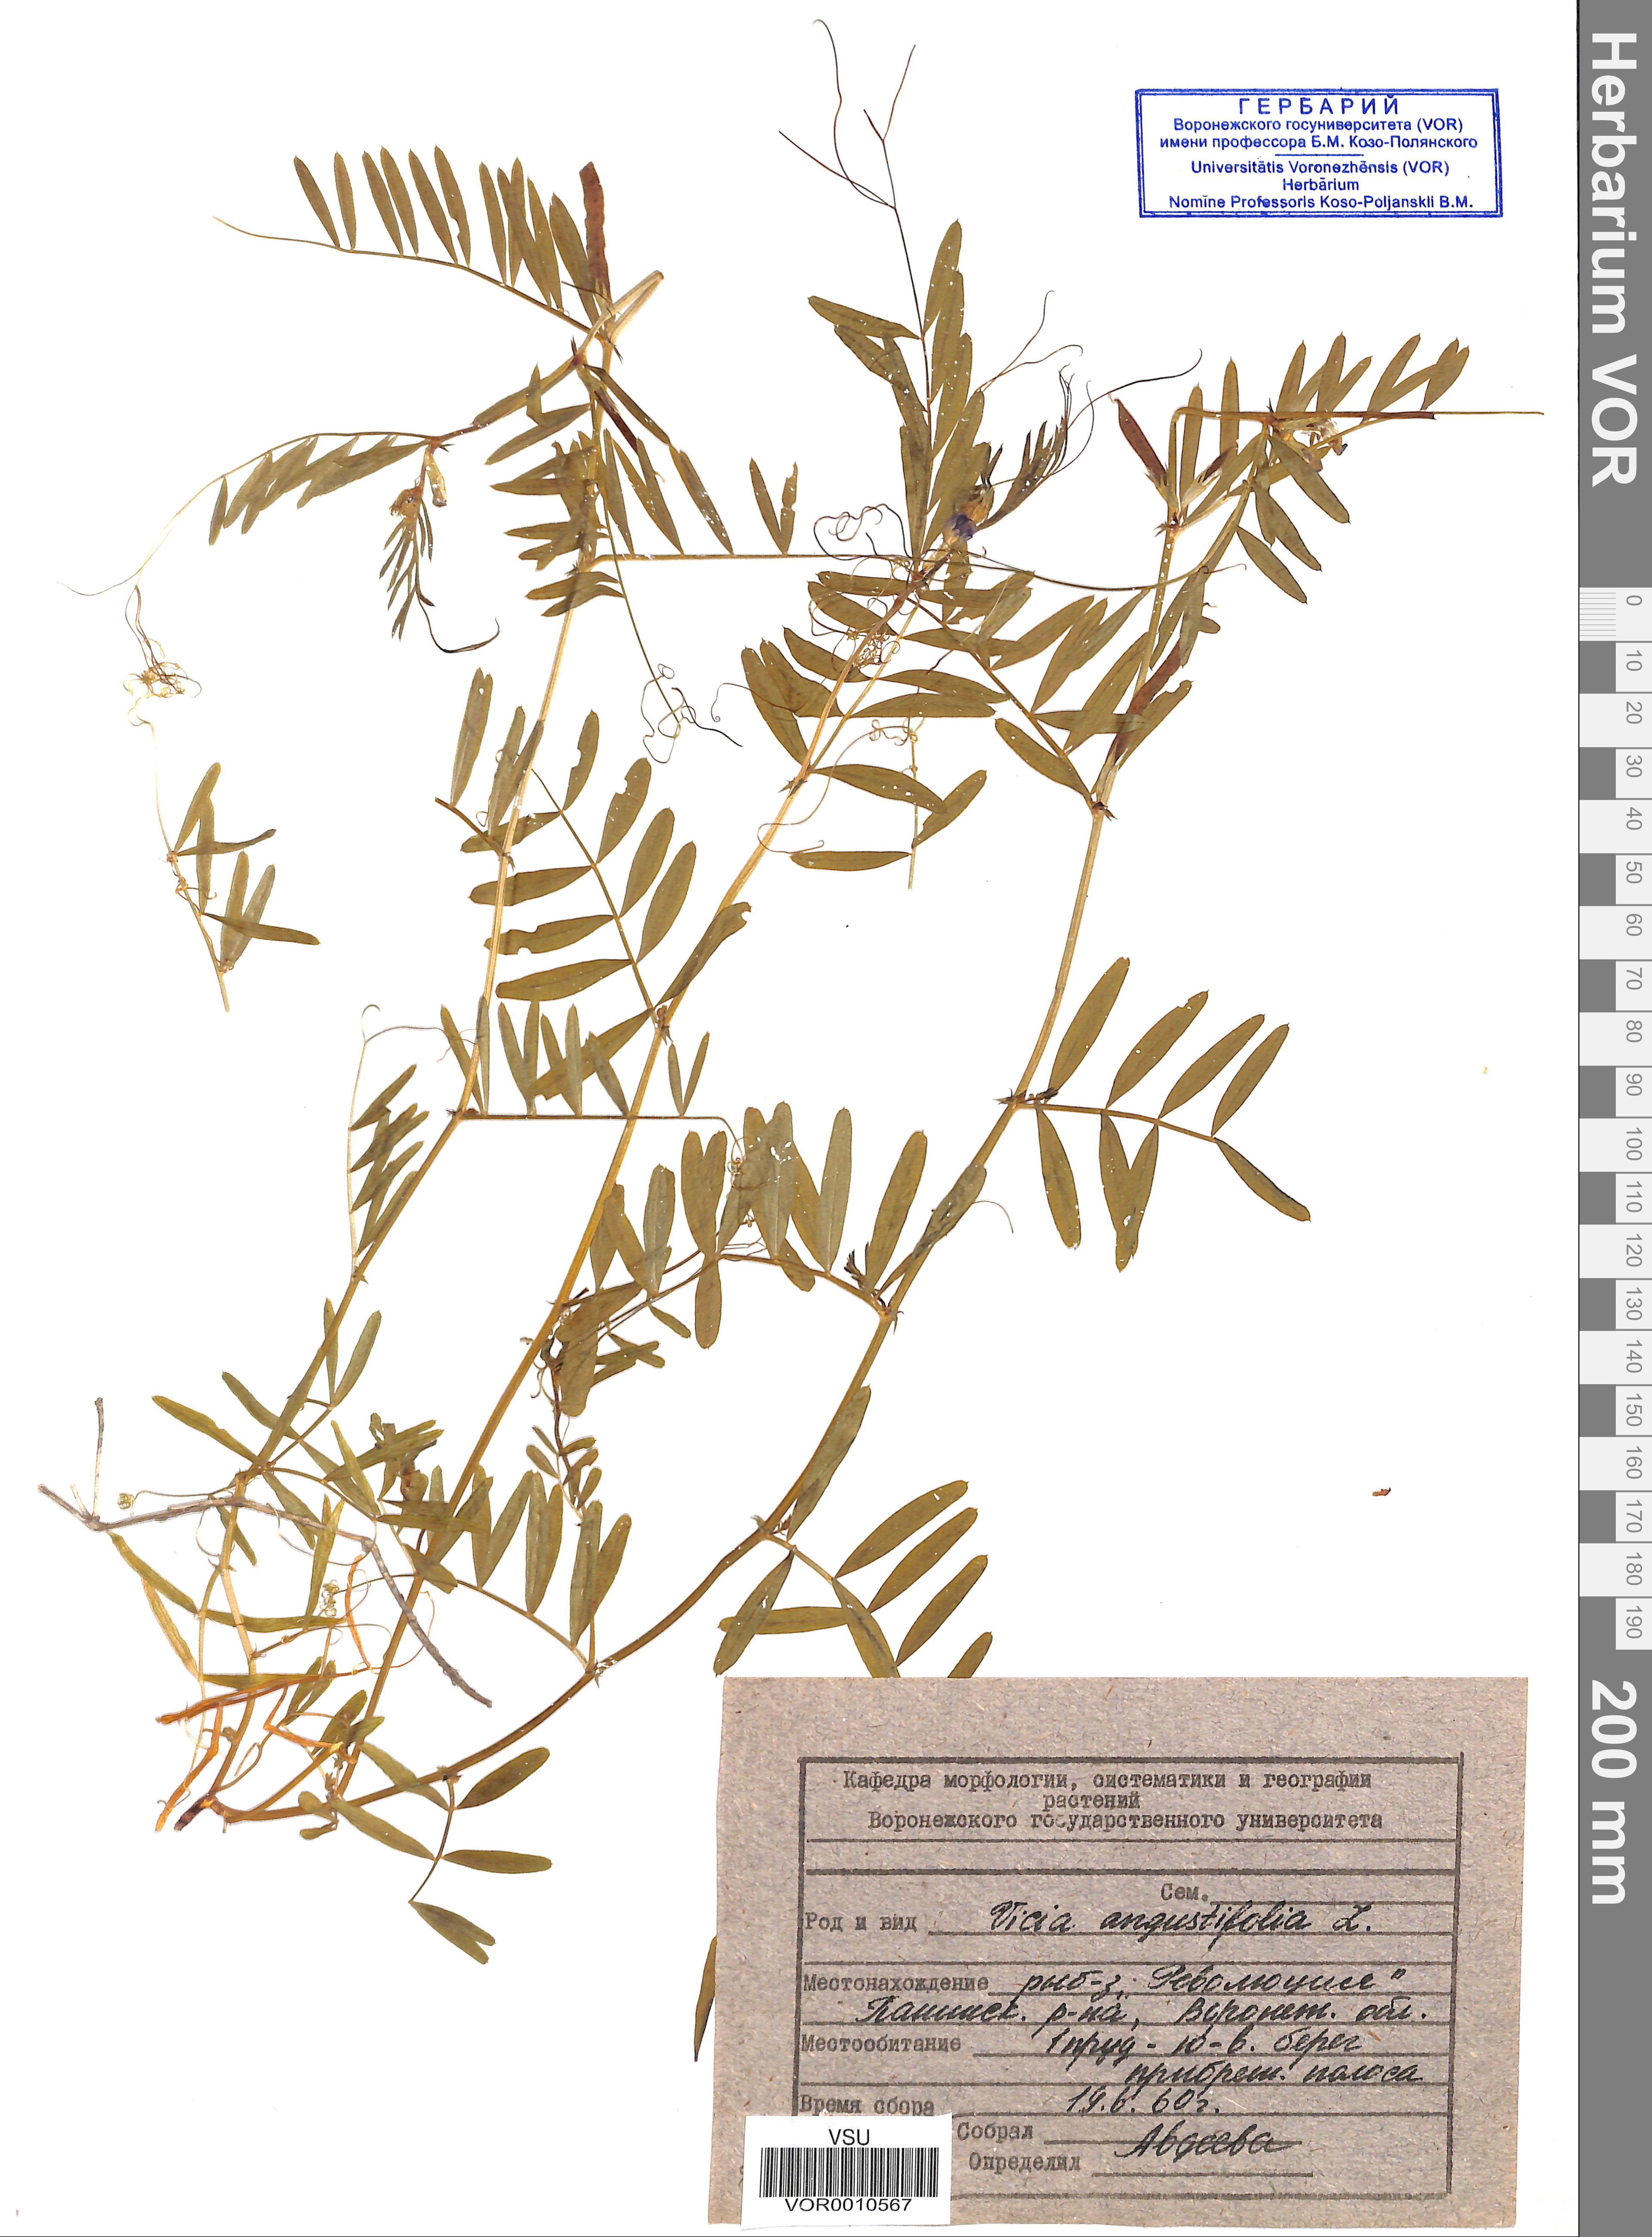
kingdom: Plantae
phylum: Tracheophyta
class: Magnoliopsida
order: Fabales
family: Fabaceae
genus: Vicia
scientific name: Vicia sativa
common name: Garden vetch
